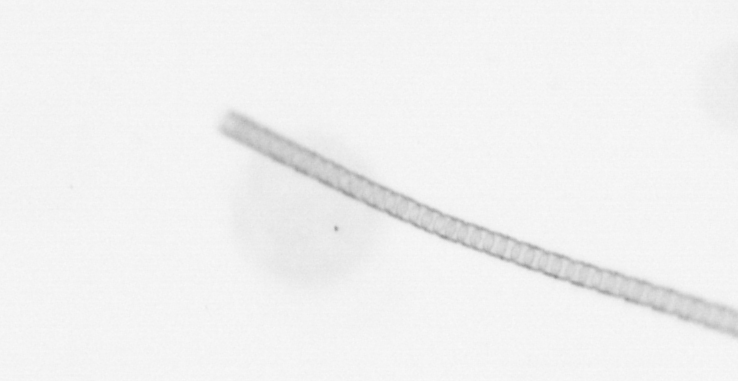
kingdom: Chromista
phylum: Ochrophyta
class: Bacillariophyceae
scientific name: Bacillariophyceae
